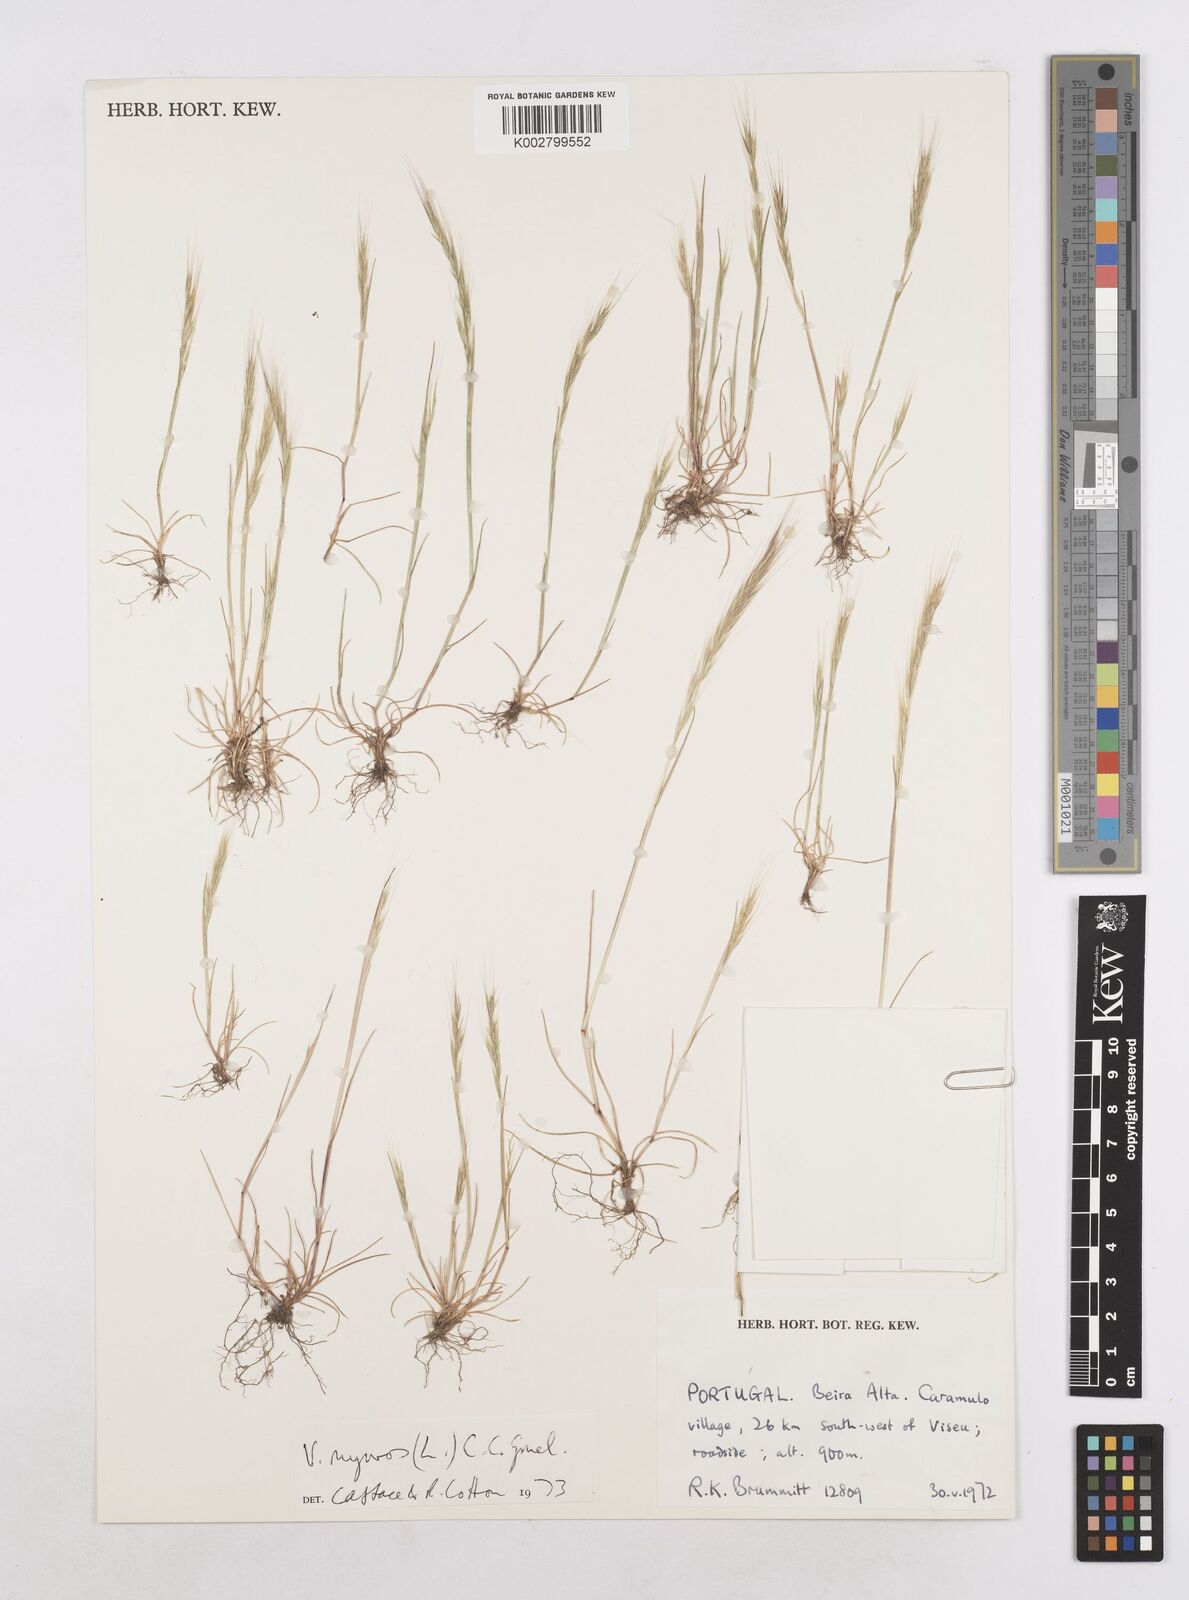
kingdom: Plantae
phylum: Tracheophyta
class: Liliopsida
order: Poales
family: Poaceae
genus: Festuca
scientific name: Festuca myuros
